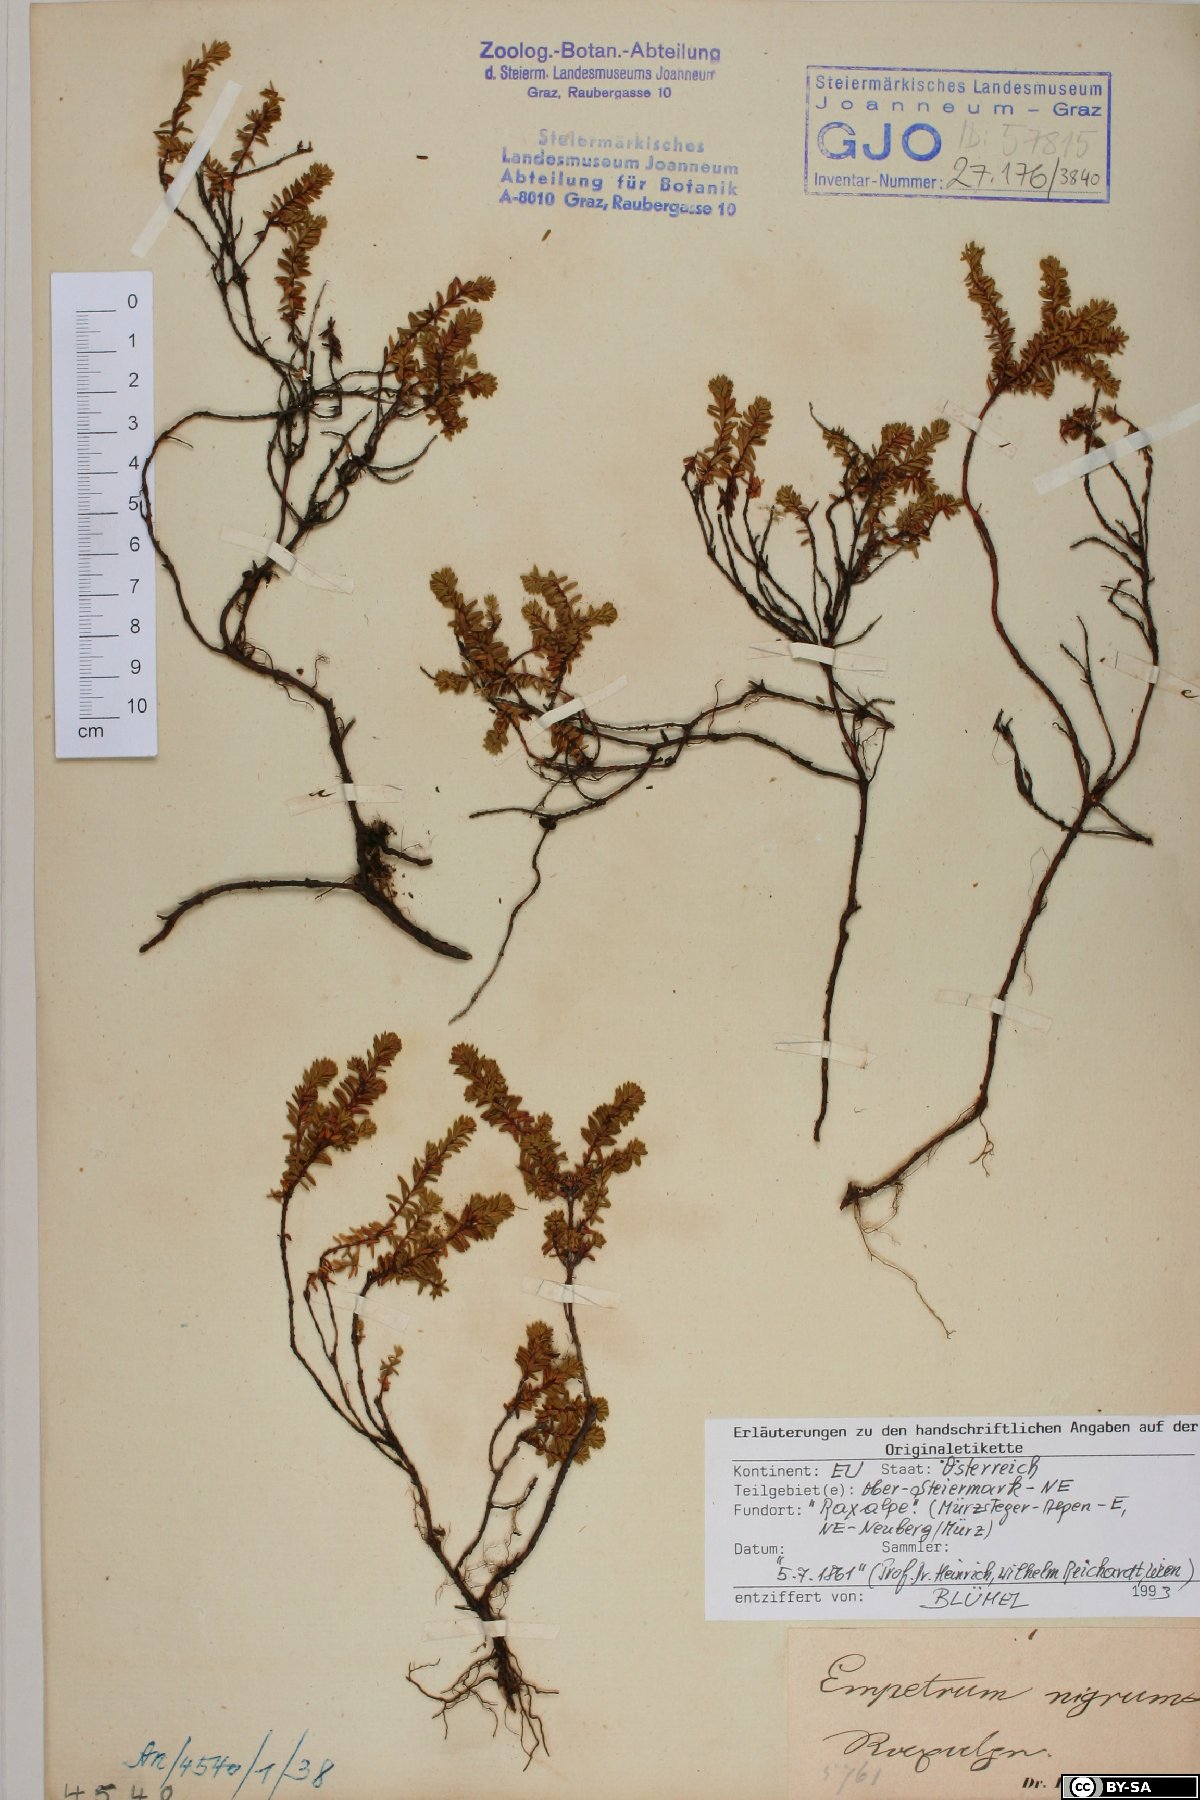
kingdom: Plantae
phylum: Tracheophyta
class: Magnoliopsida
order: Ericales
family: Ericaceae
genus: Empetrum
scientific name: Empetrum nigrum
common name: Black crowberry
